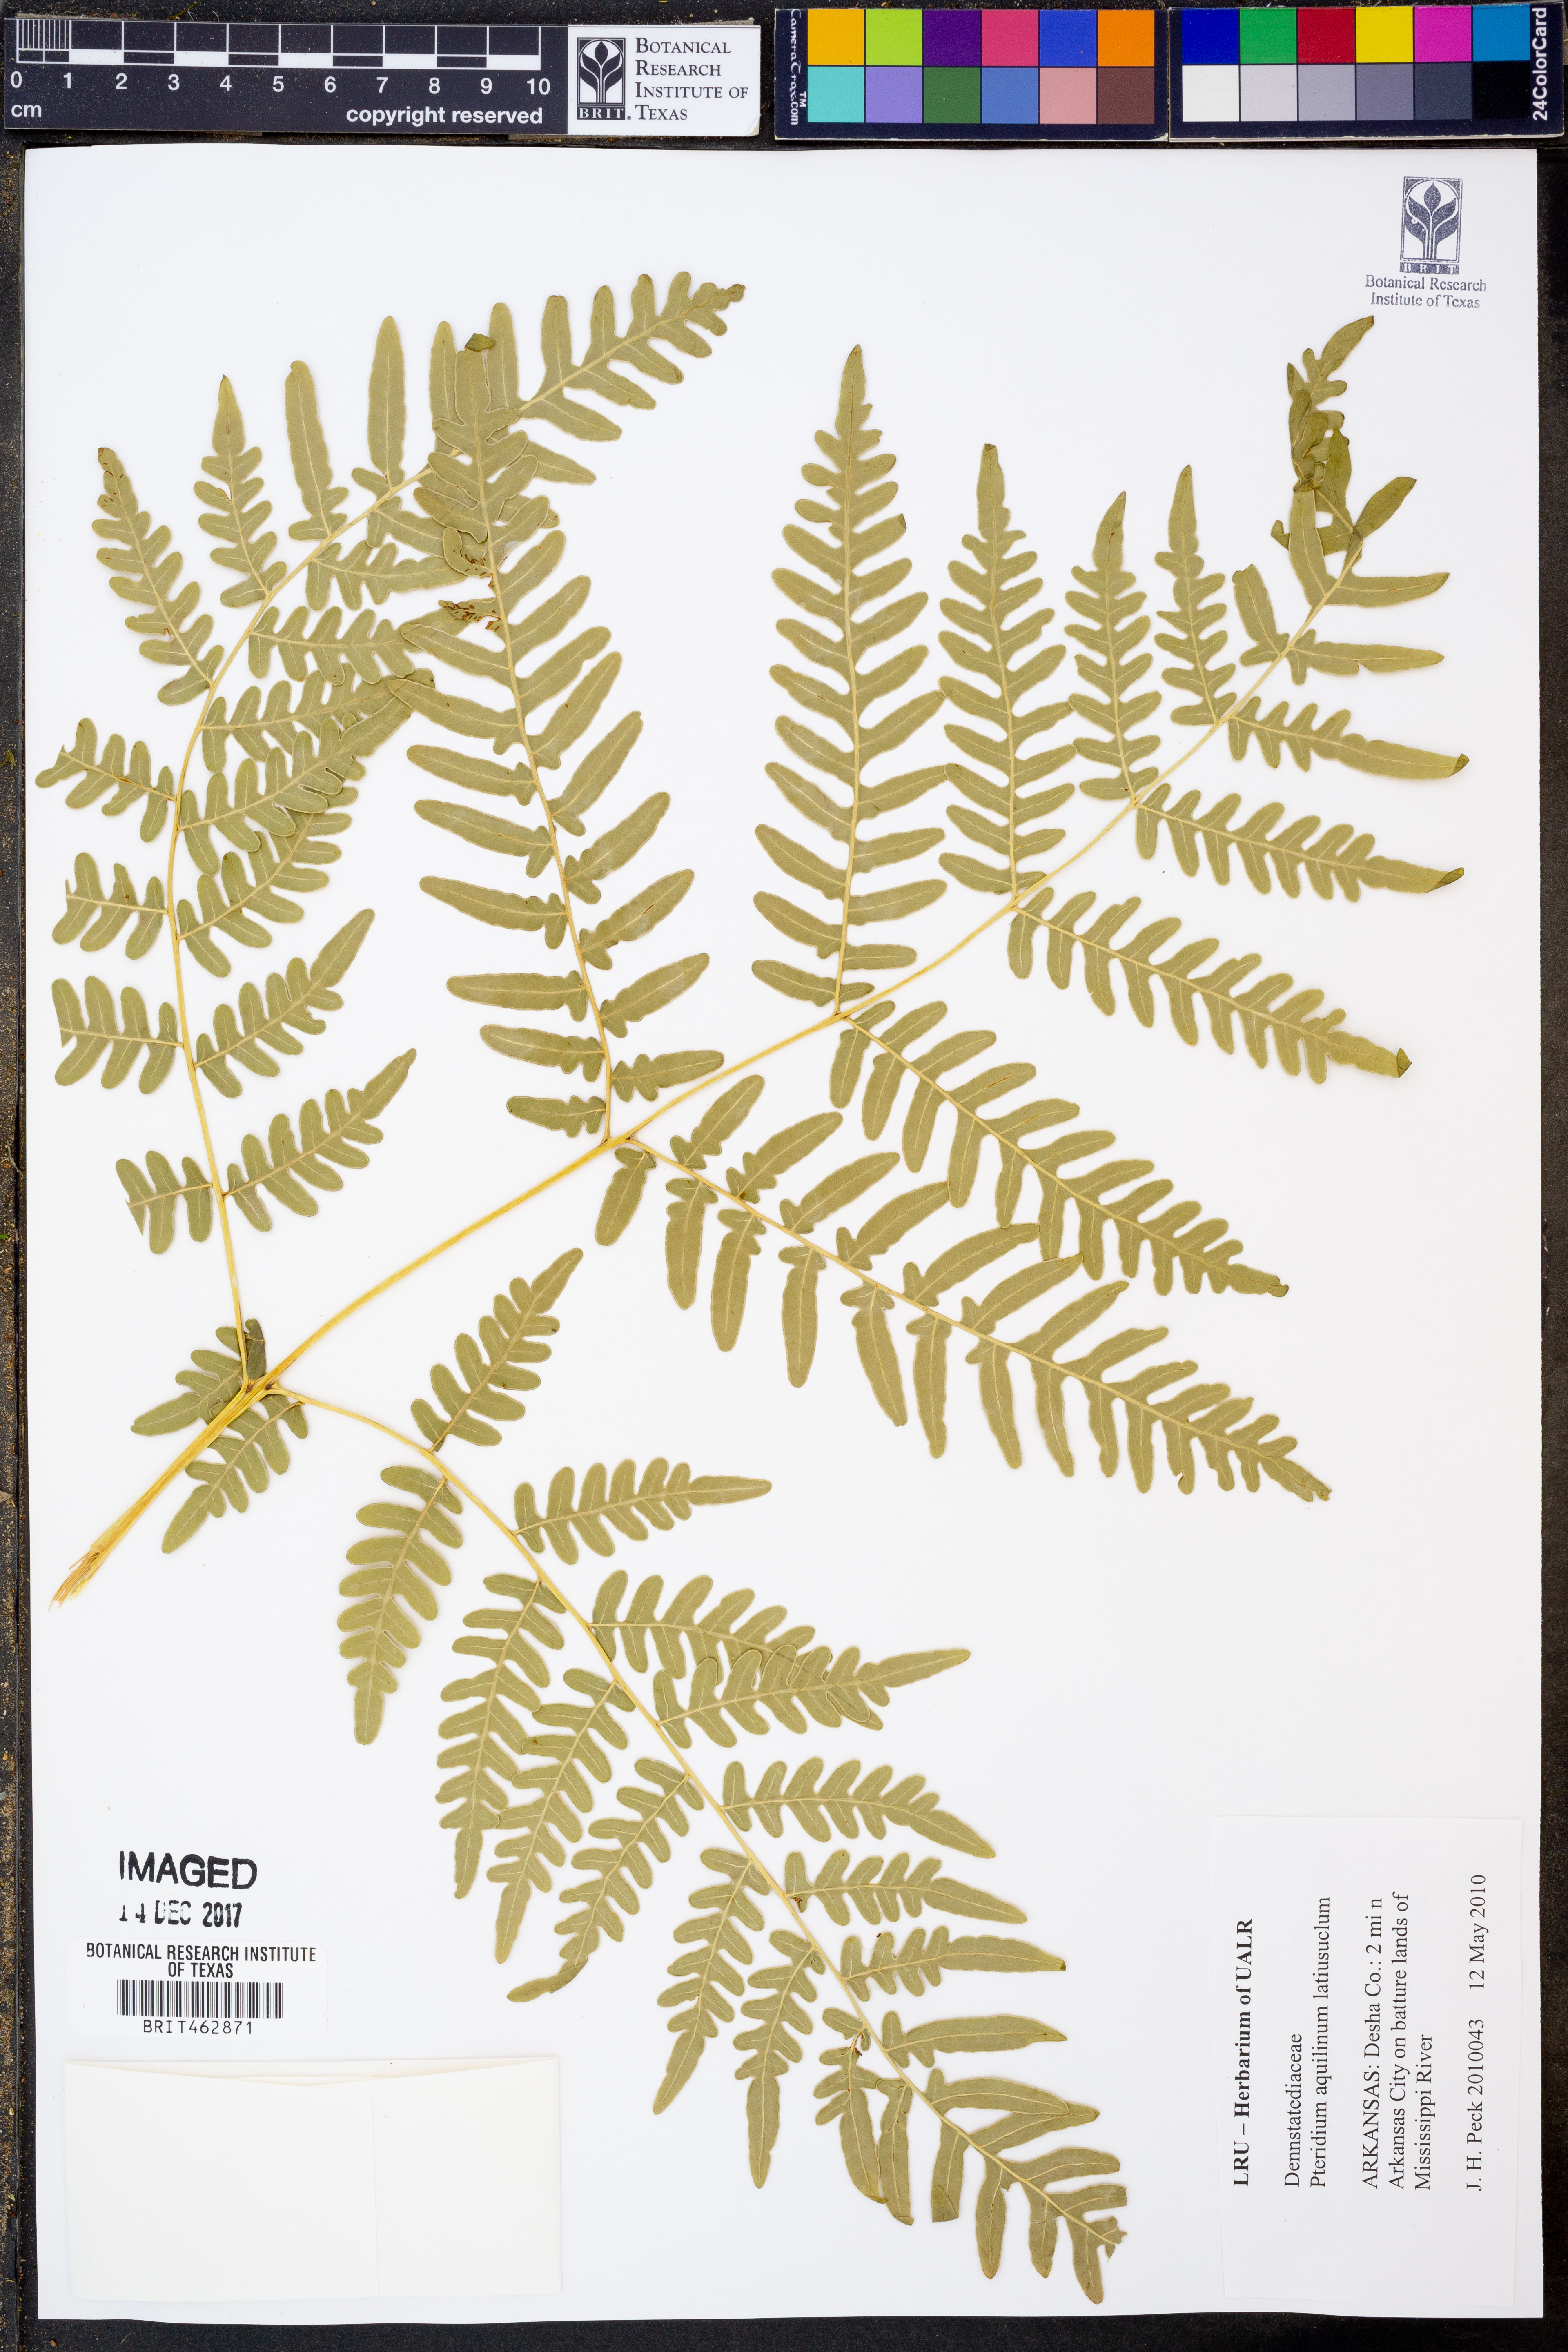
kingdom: Plantae
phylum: Tracheophyta
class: Polypodiopsida
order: Polypodiales
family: Dennstaedtiaceae
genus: Pteridium
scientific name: Pteridium aquilinum
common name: Bracken
